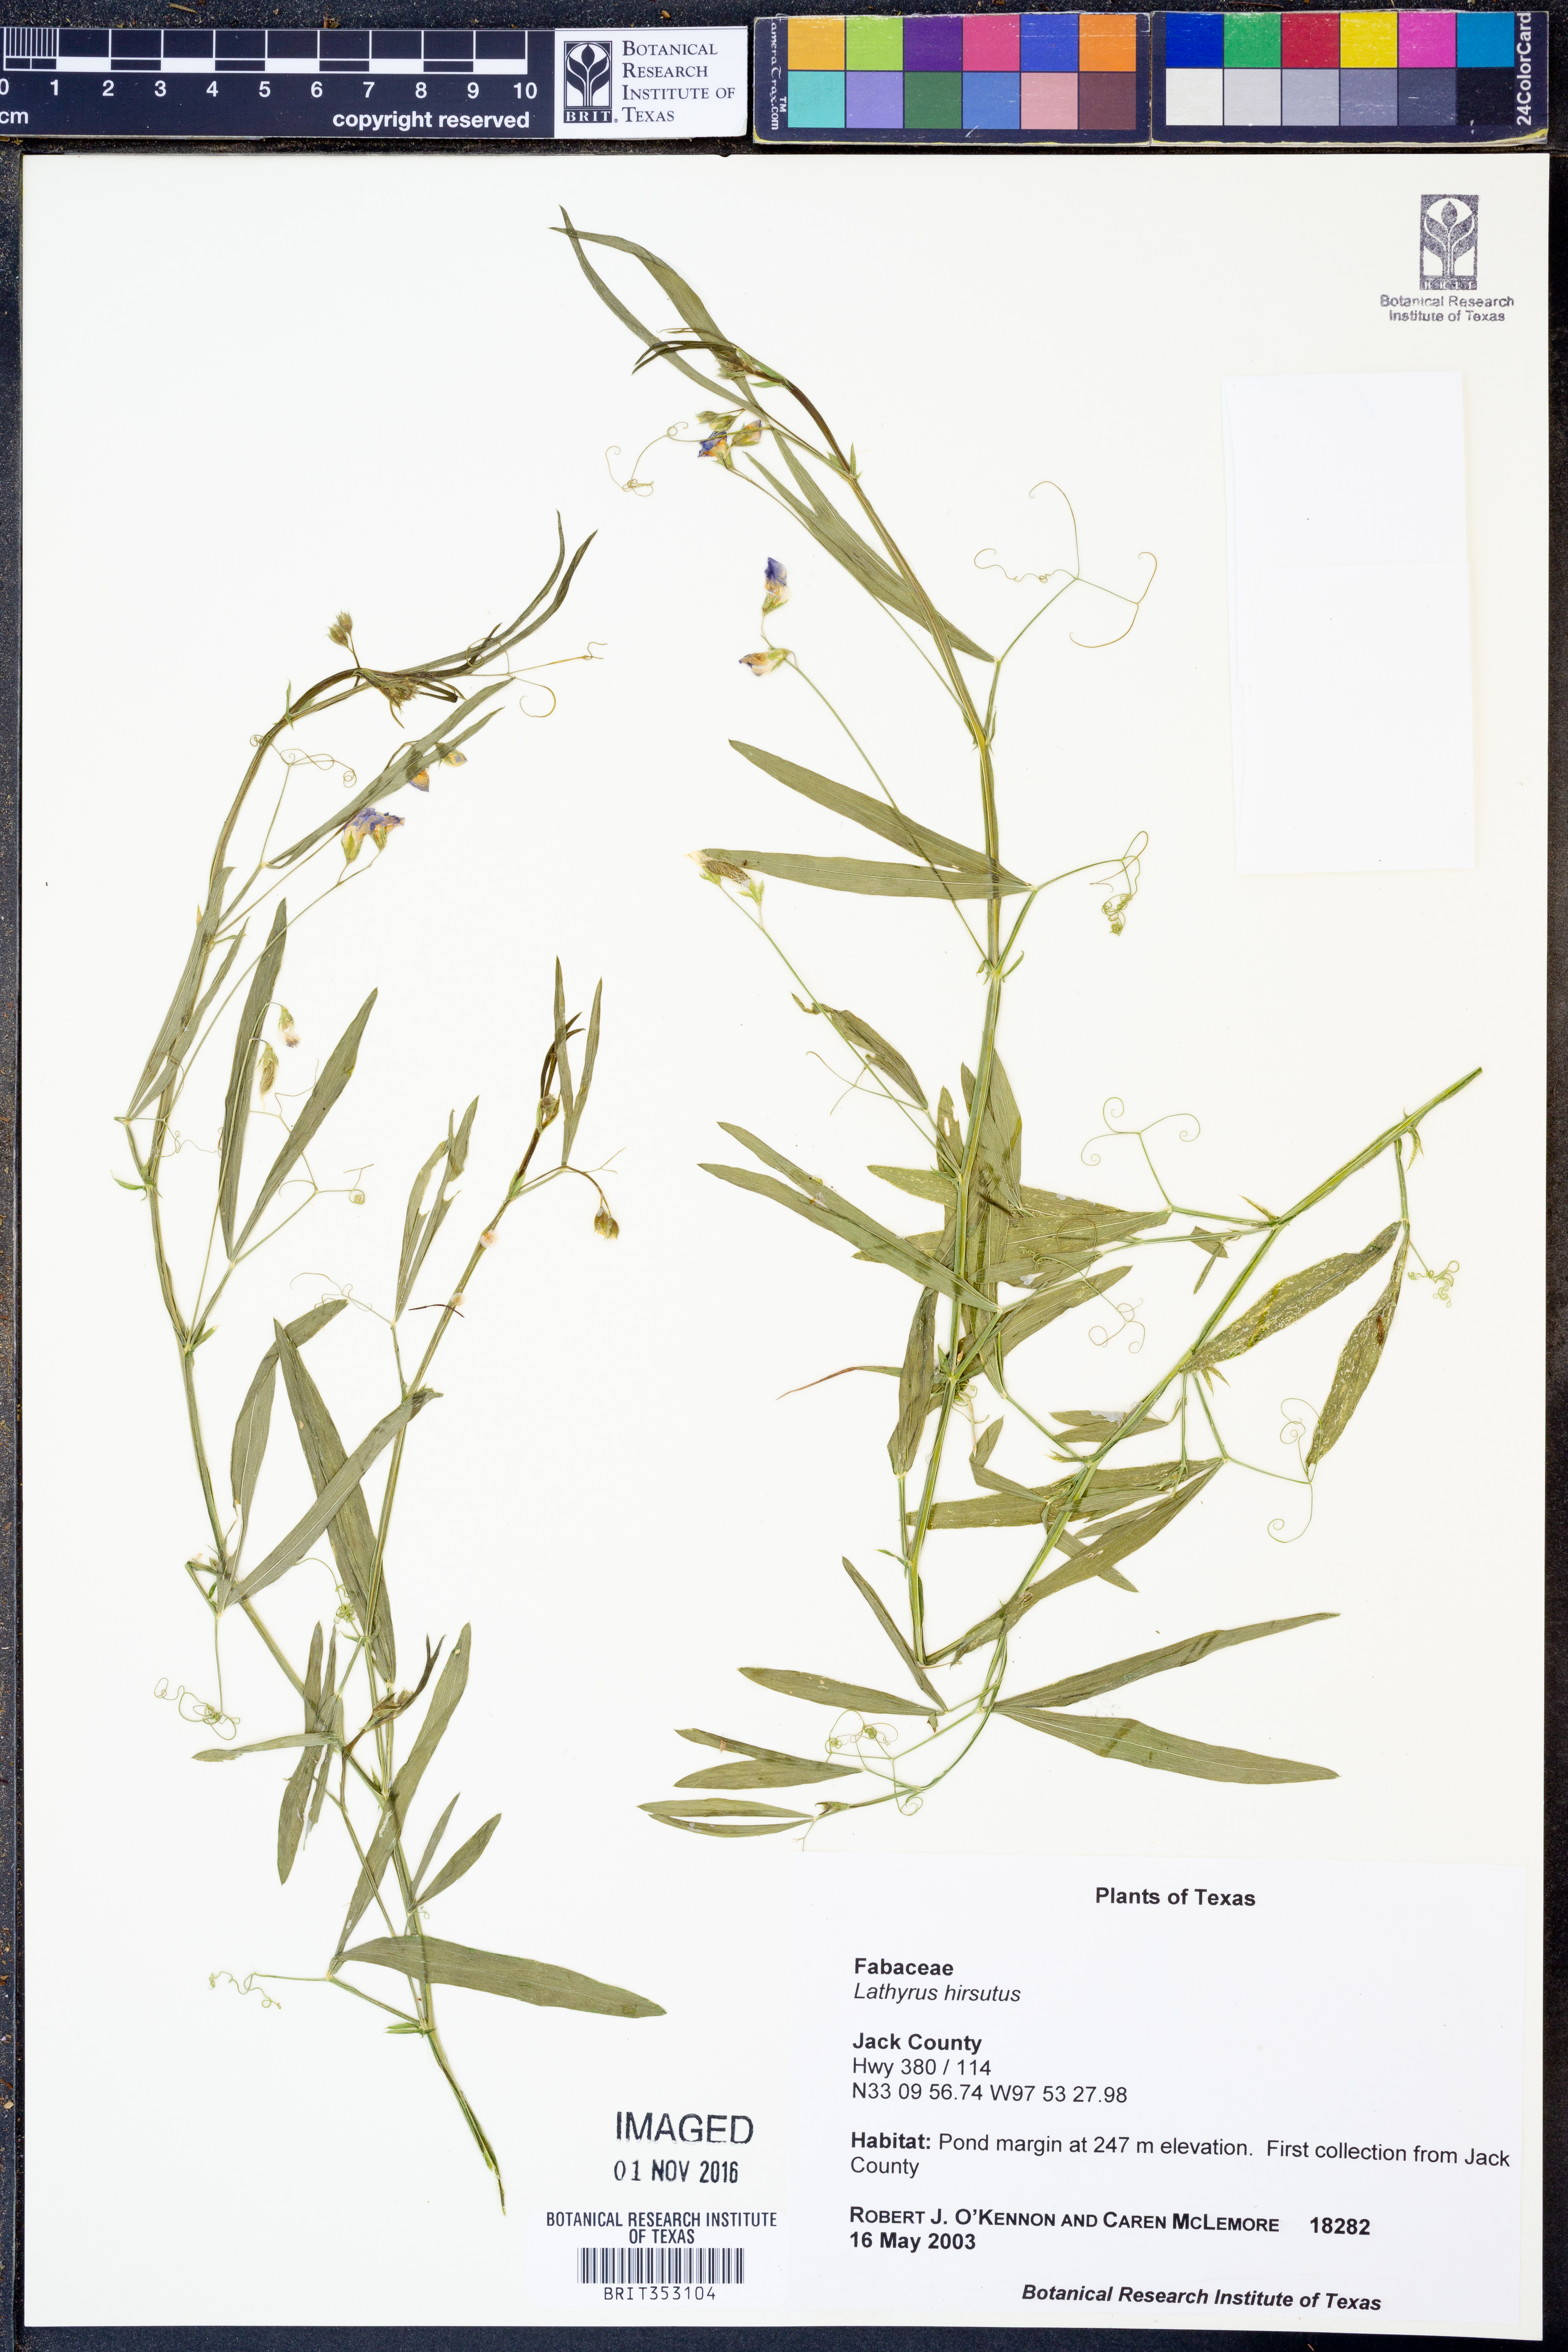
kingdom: Plantae
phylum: Tracheophyta
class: Magnoliopsida
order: Fabales
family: Fabaceae
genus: Lathyrus
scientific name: Lathyrus hirsutus
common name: Hairy vetchling
